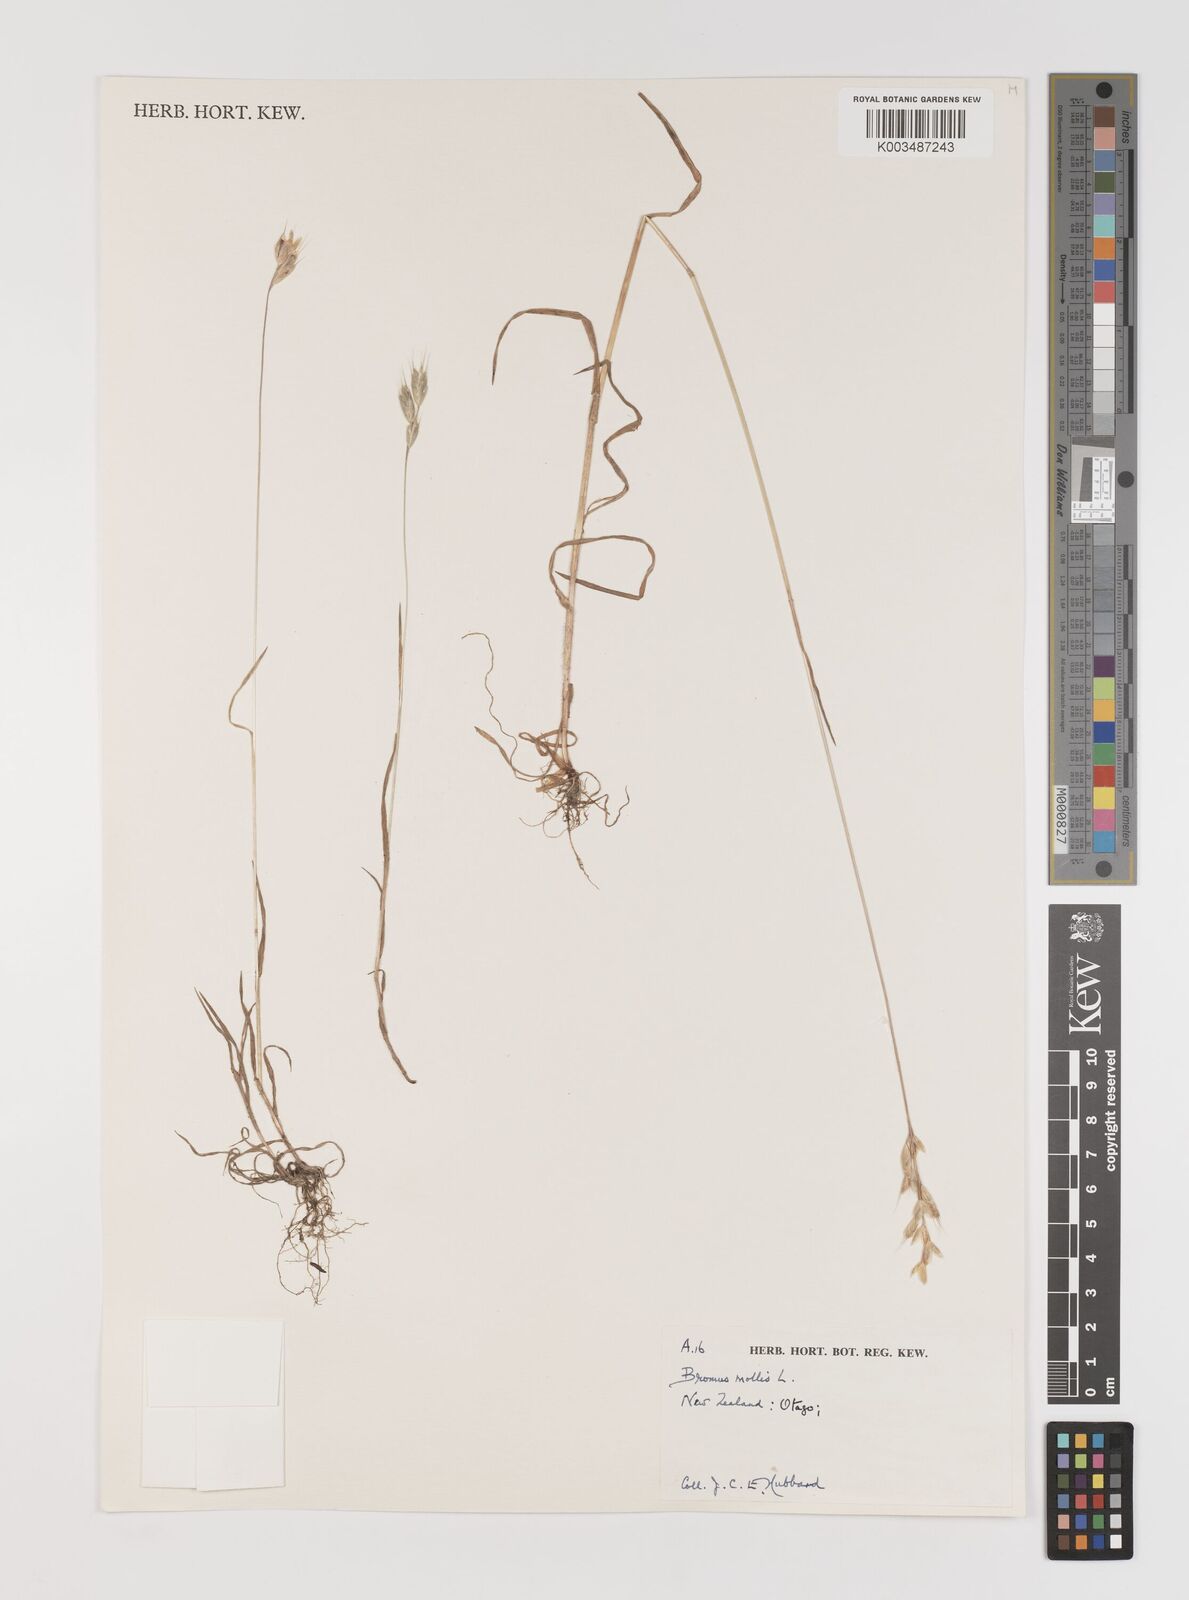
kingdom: Plantae
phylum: Tracheophyta
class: Liliopsida
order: Poales
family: Poaceae
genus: Bromus
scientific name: Bromus hordeaceus
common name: Soft brome
